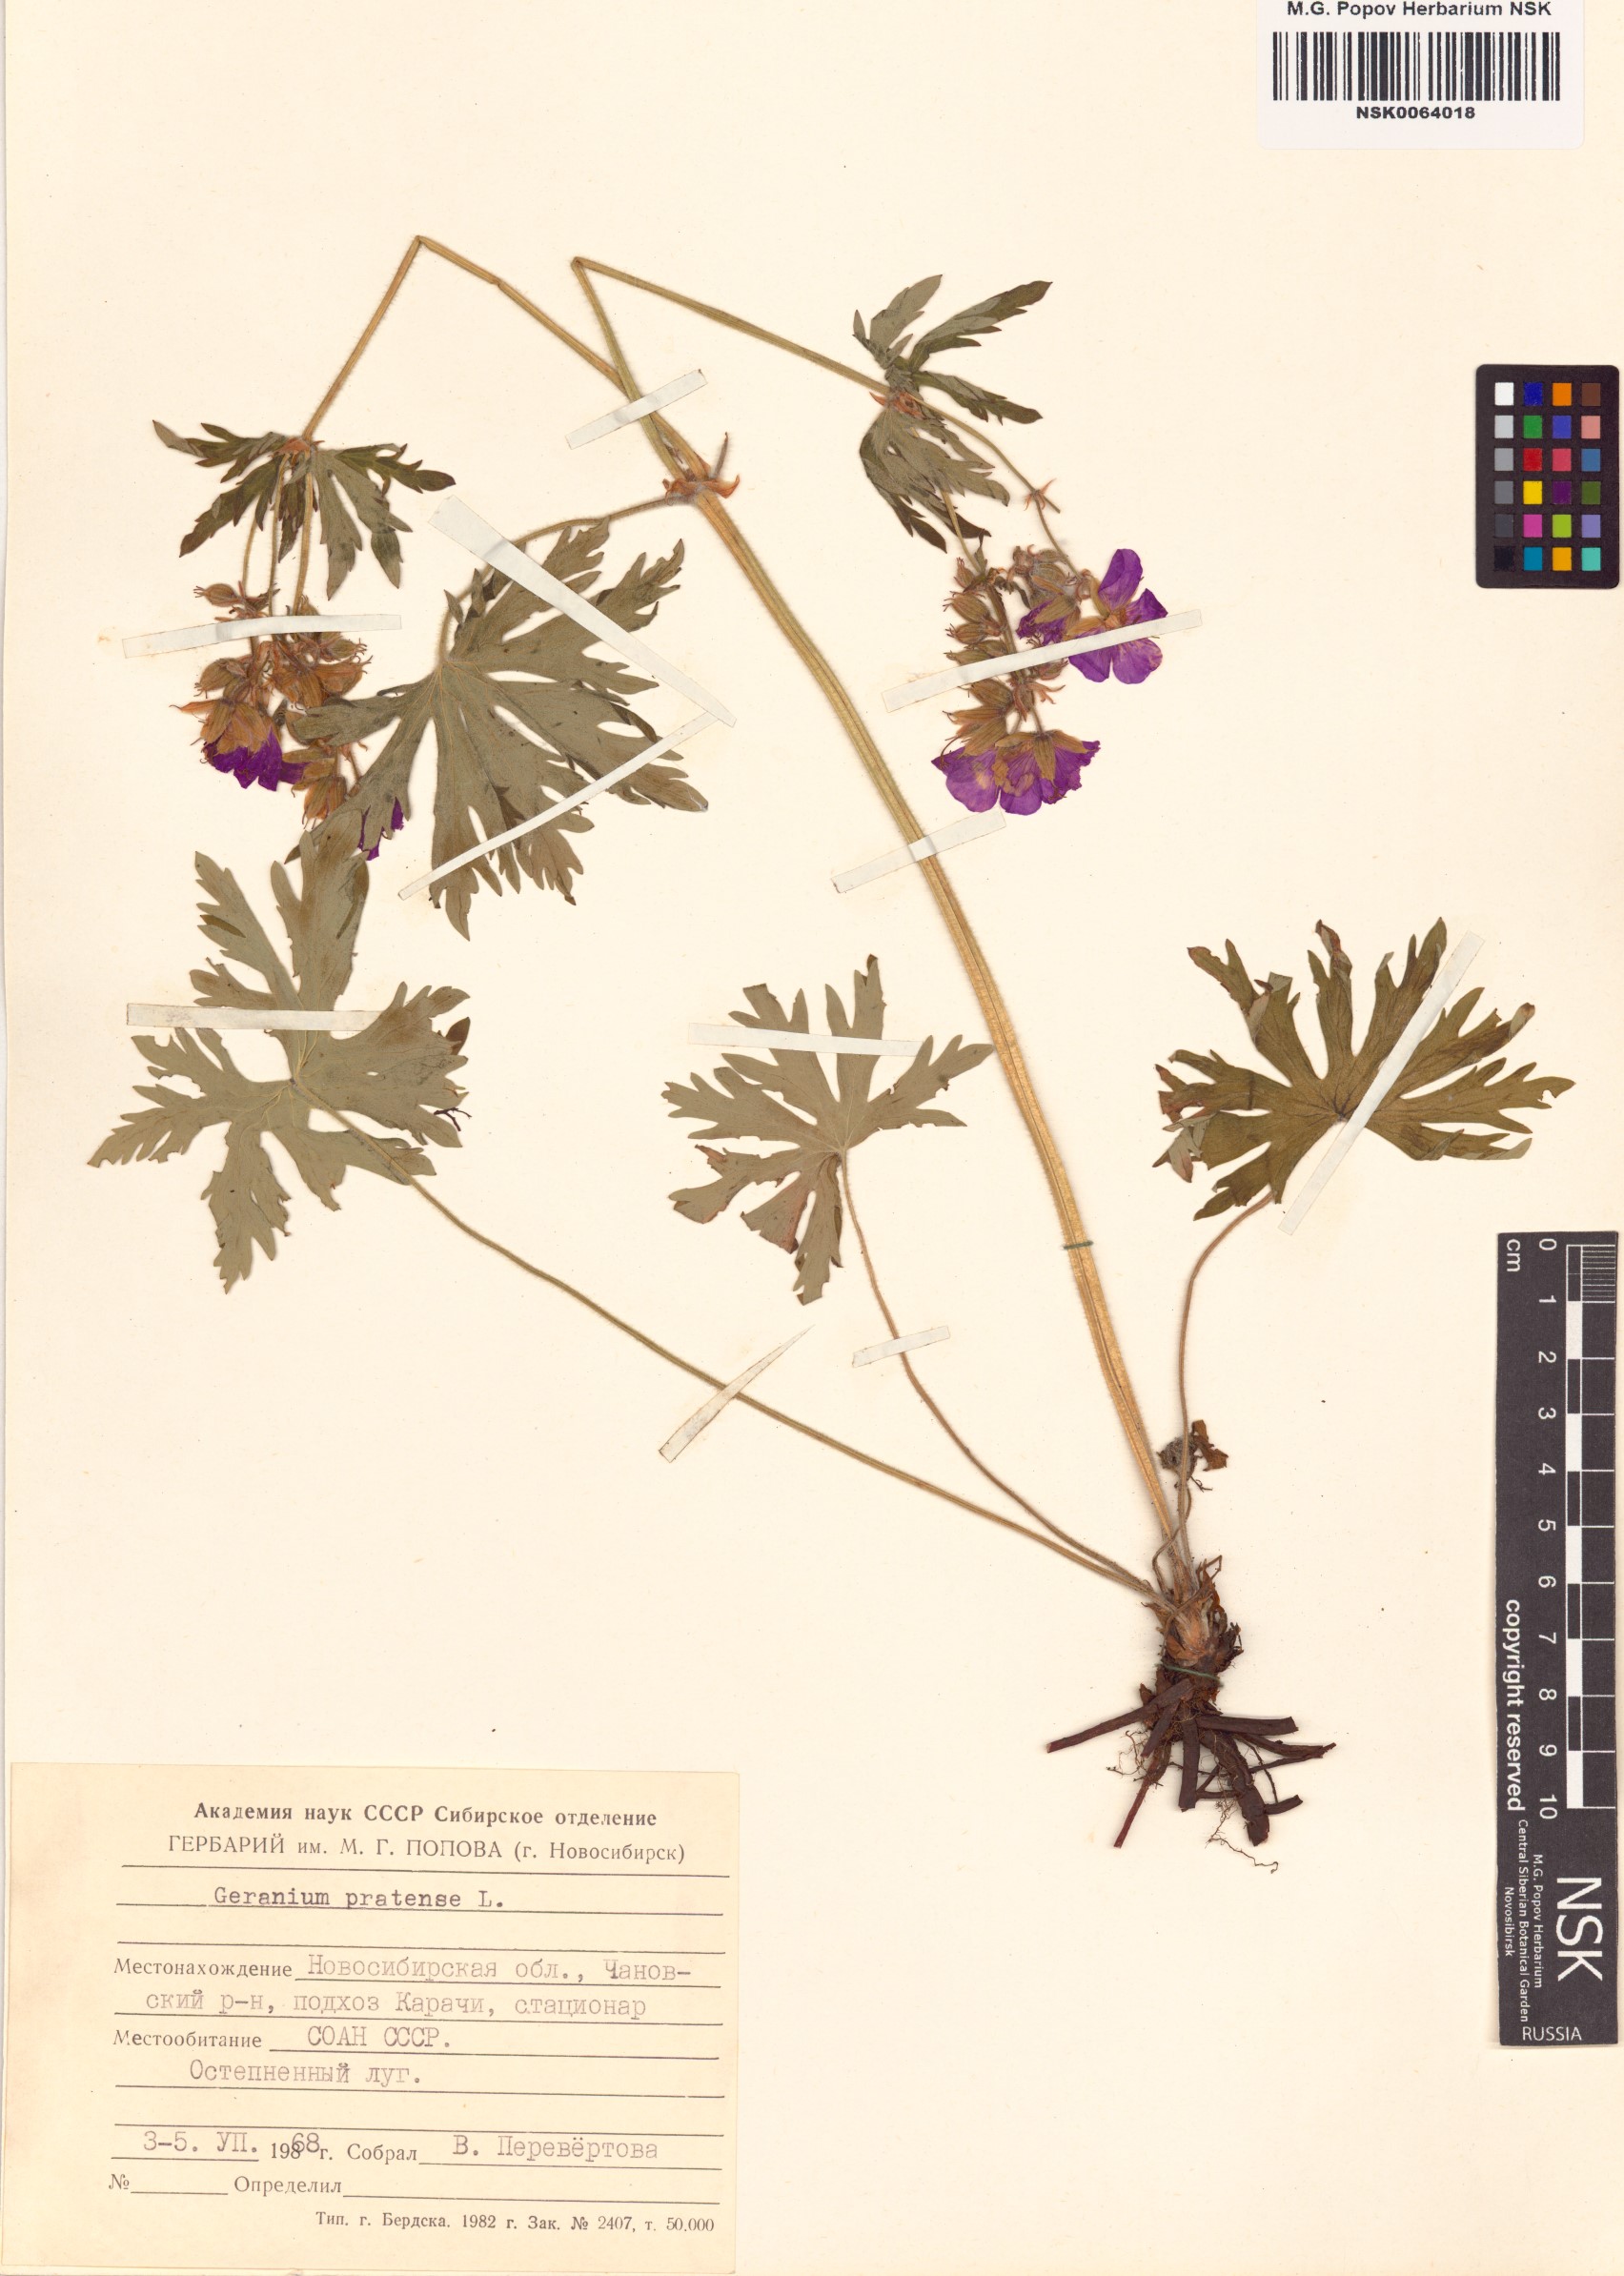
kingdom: Plantae
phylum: Tracheophyta
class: Magnoliopsida
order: Geraniales
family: Geraniaceae
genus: Geranium
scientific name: Geranium pratense
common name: Meadow crane's-bill
